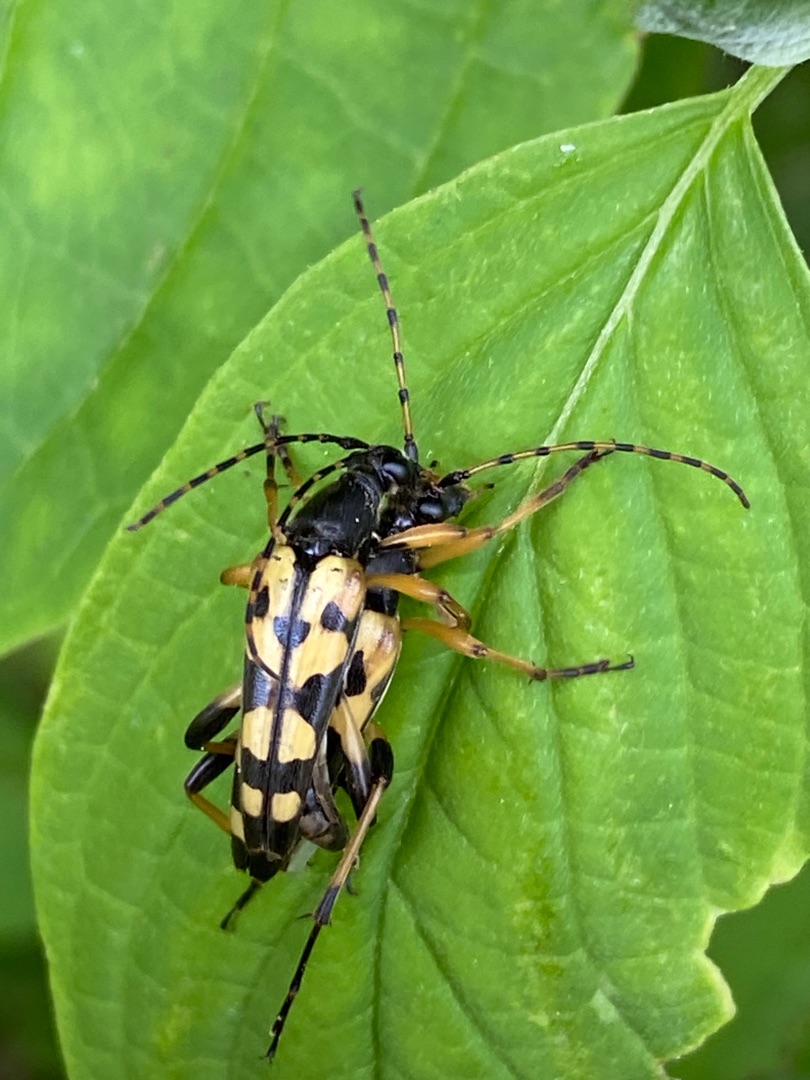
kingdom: Animalia
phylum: Arthropoda
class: Insecta
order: Coleoptera
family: Cerambycidae
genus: Rutpela
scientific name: Rutpela maculata
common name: Sydlig blomsterbuk
